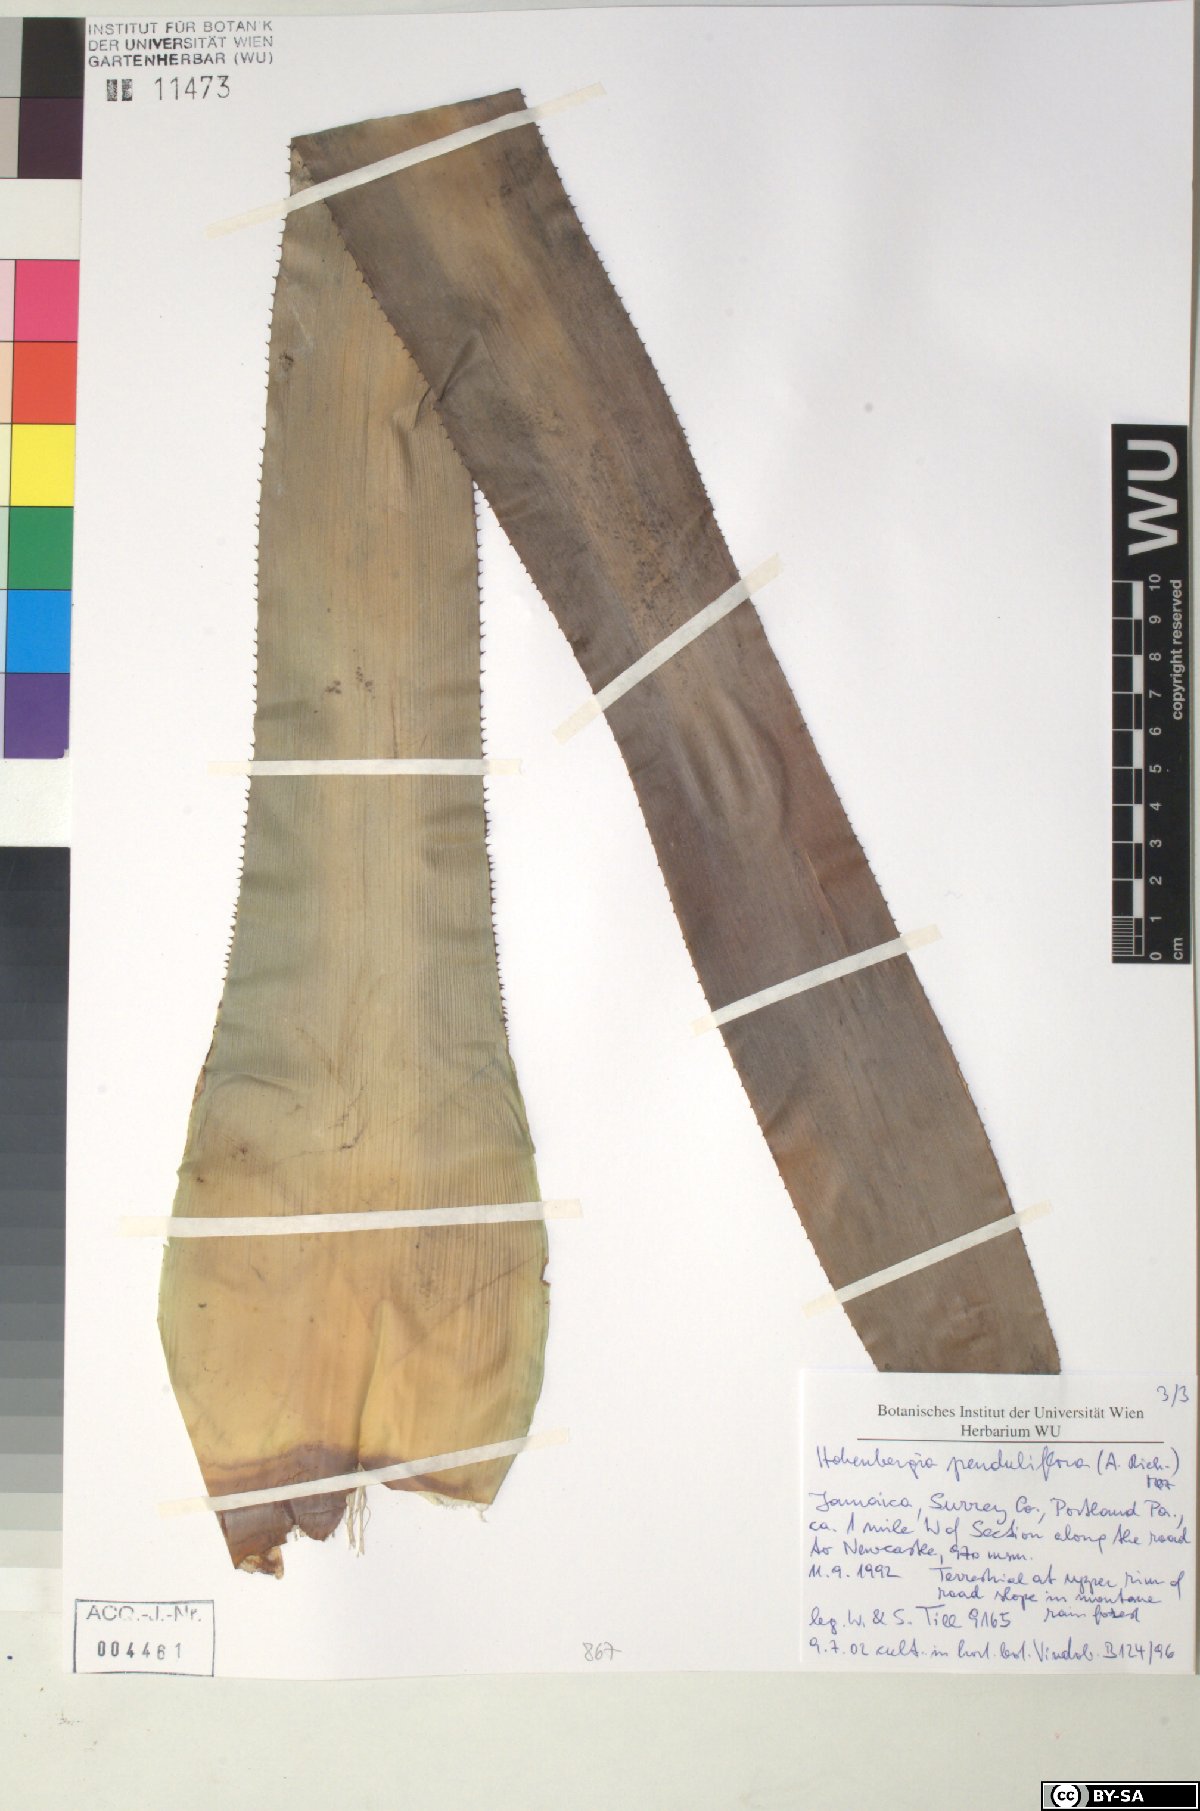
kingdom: Plantae
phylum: Tracheophyta
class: Liliopsida
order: Poales
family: Bromeliaceae
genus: Wittmackia
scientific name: Wittmackia penduliflora
